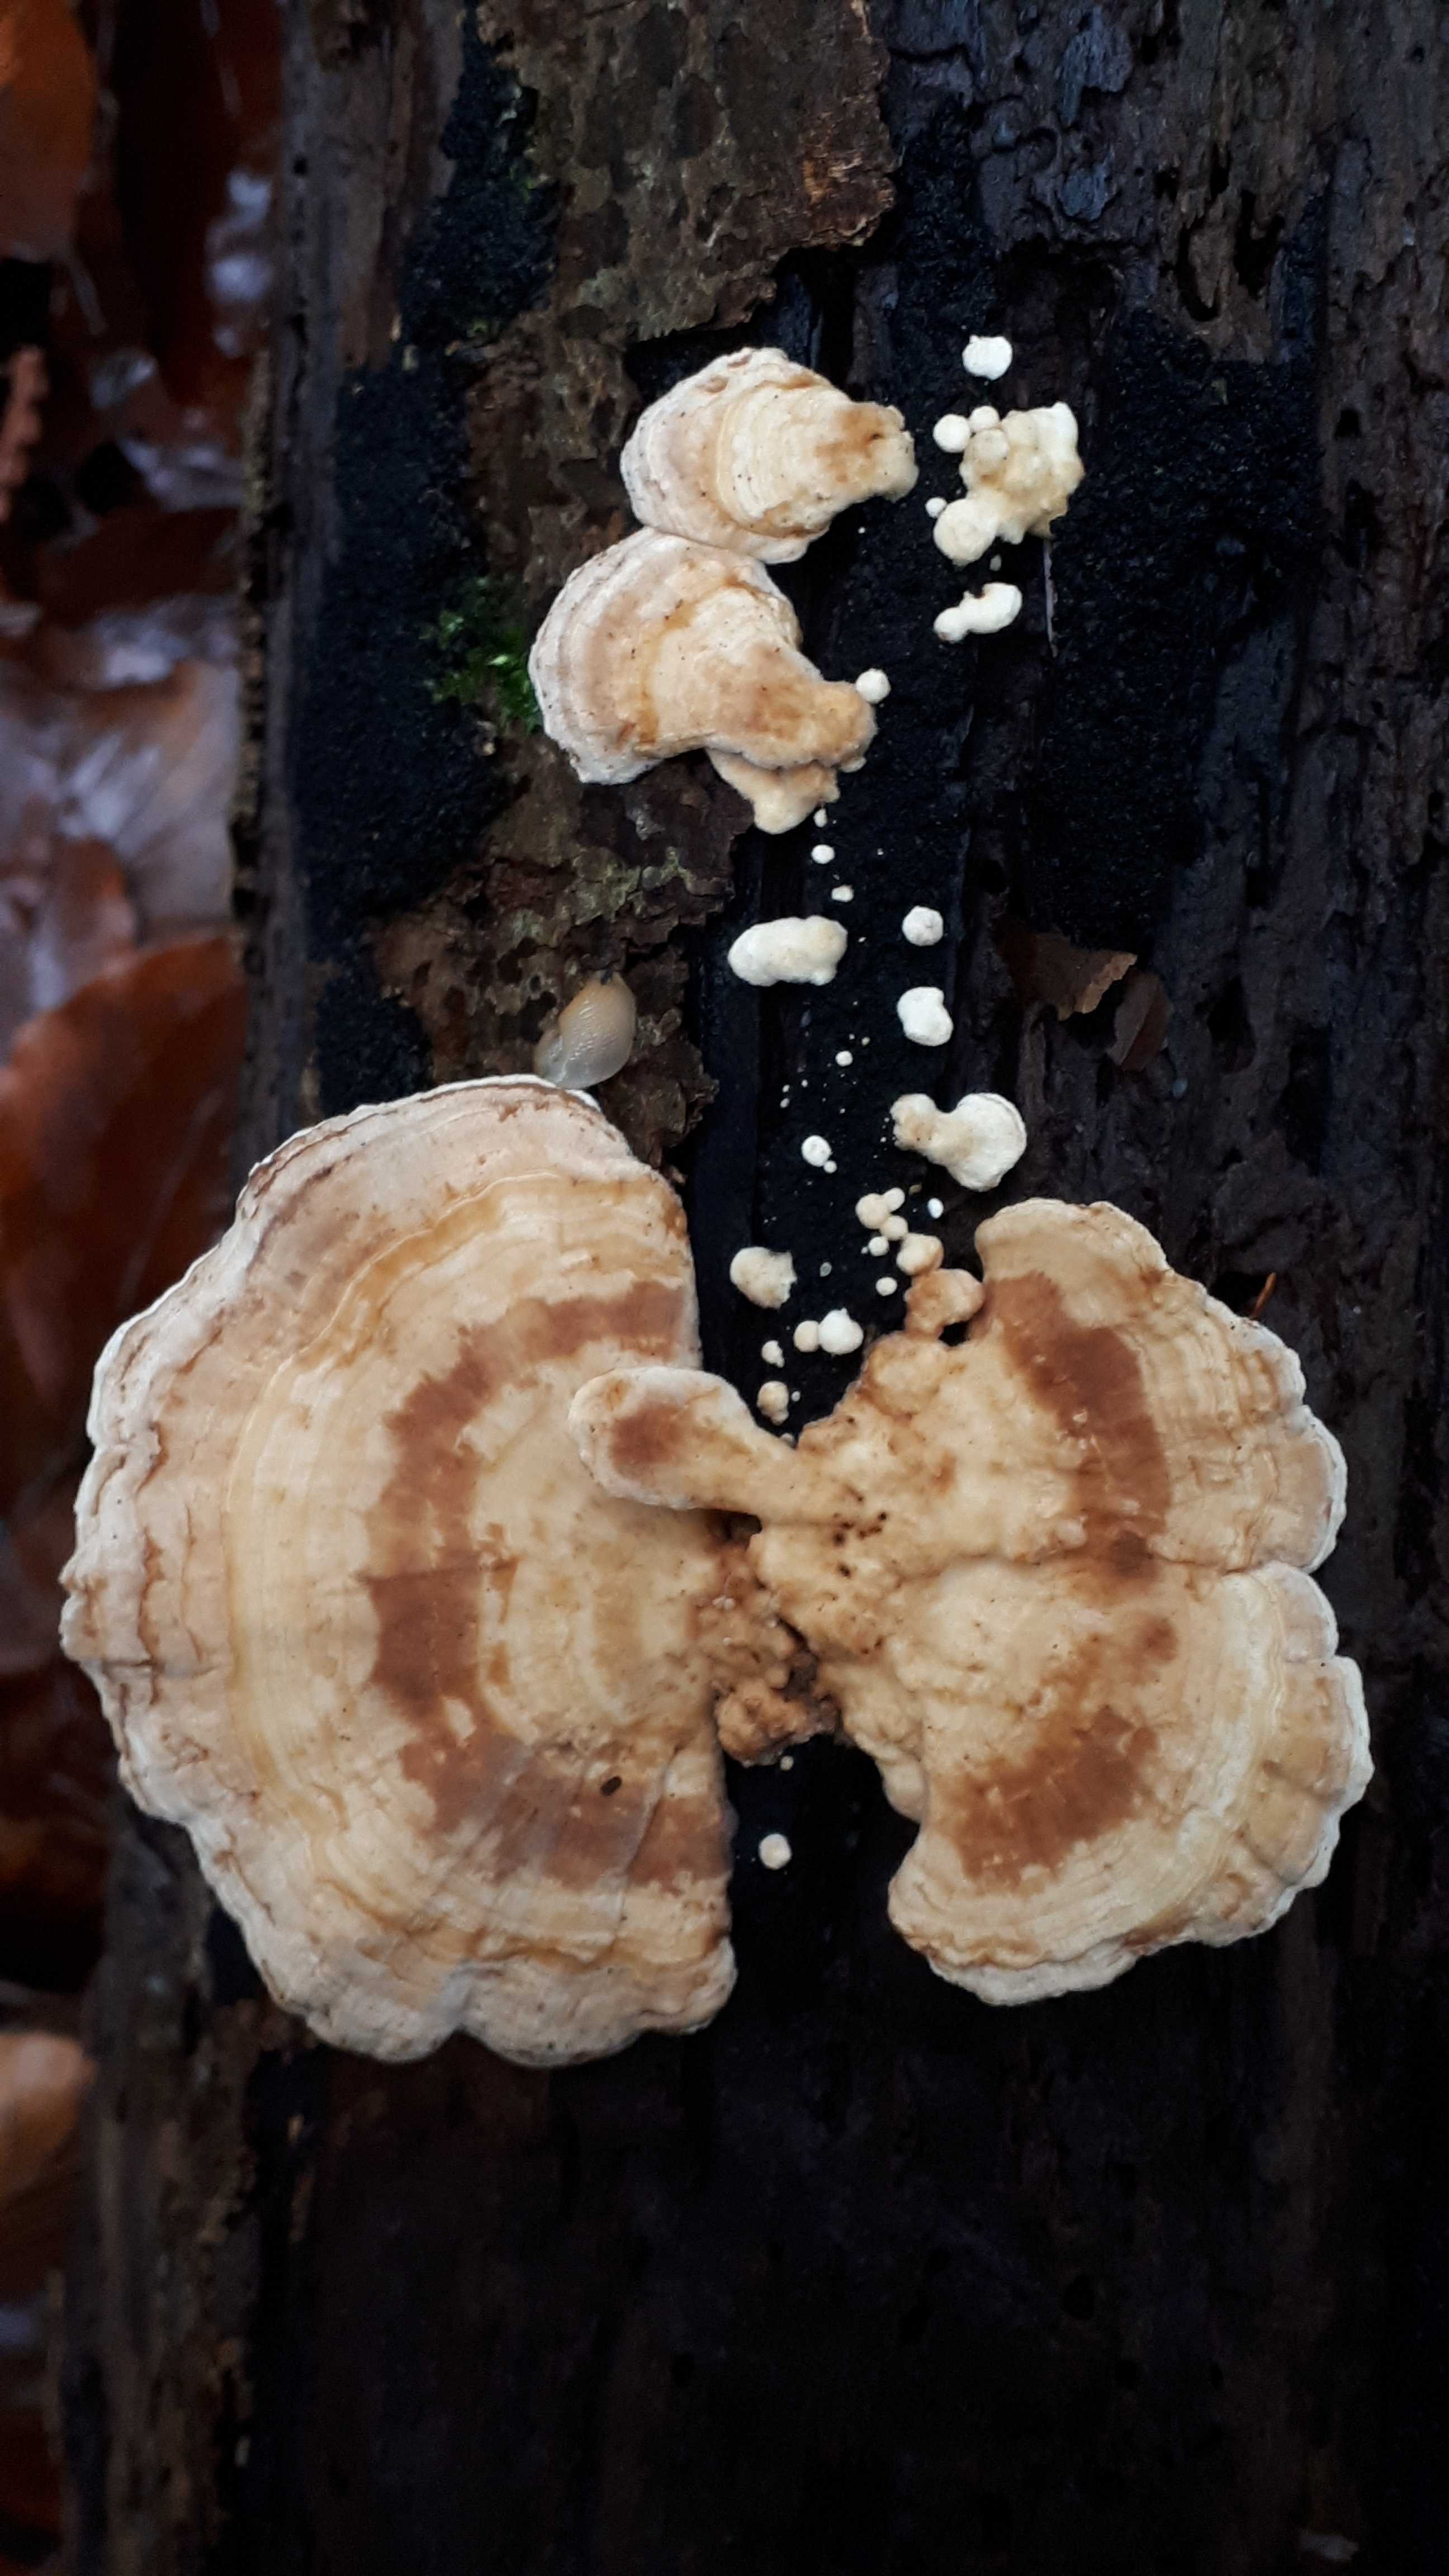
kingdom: Fungi
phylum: Basidiomycota
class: Agaricomycetes
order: Polyporales
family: Polyporaceae
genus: Trametes
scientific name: Trametes ochracea
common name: bæltet læderporesvamp
